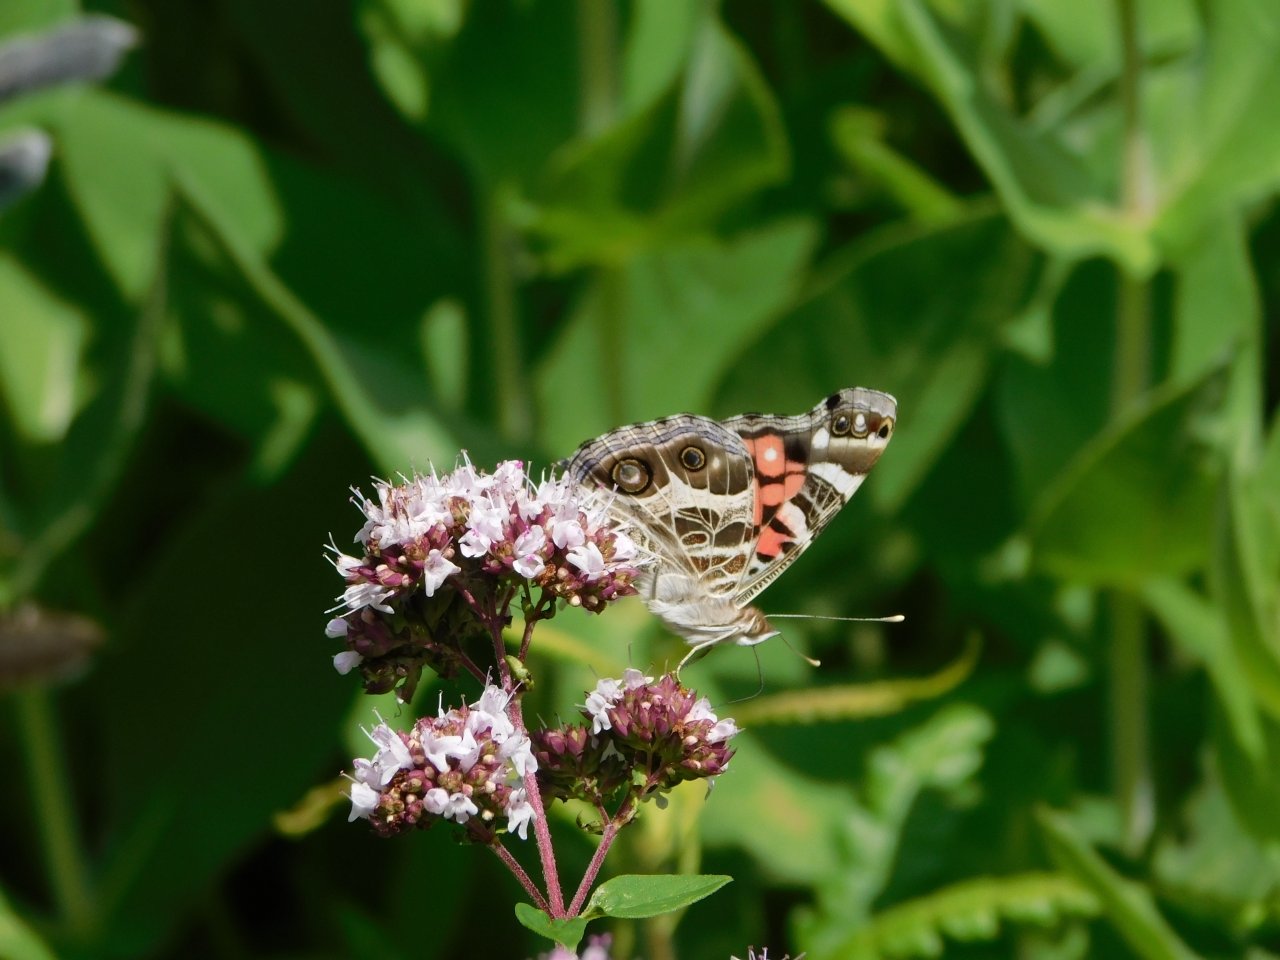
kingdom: Animalia
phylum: Arthropoda
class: Insecta
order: Lepidoptera
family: Nymphalidae
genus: Vanessa
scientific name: Vanessa virginiensis
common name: American Lady
